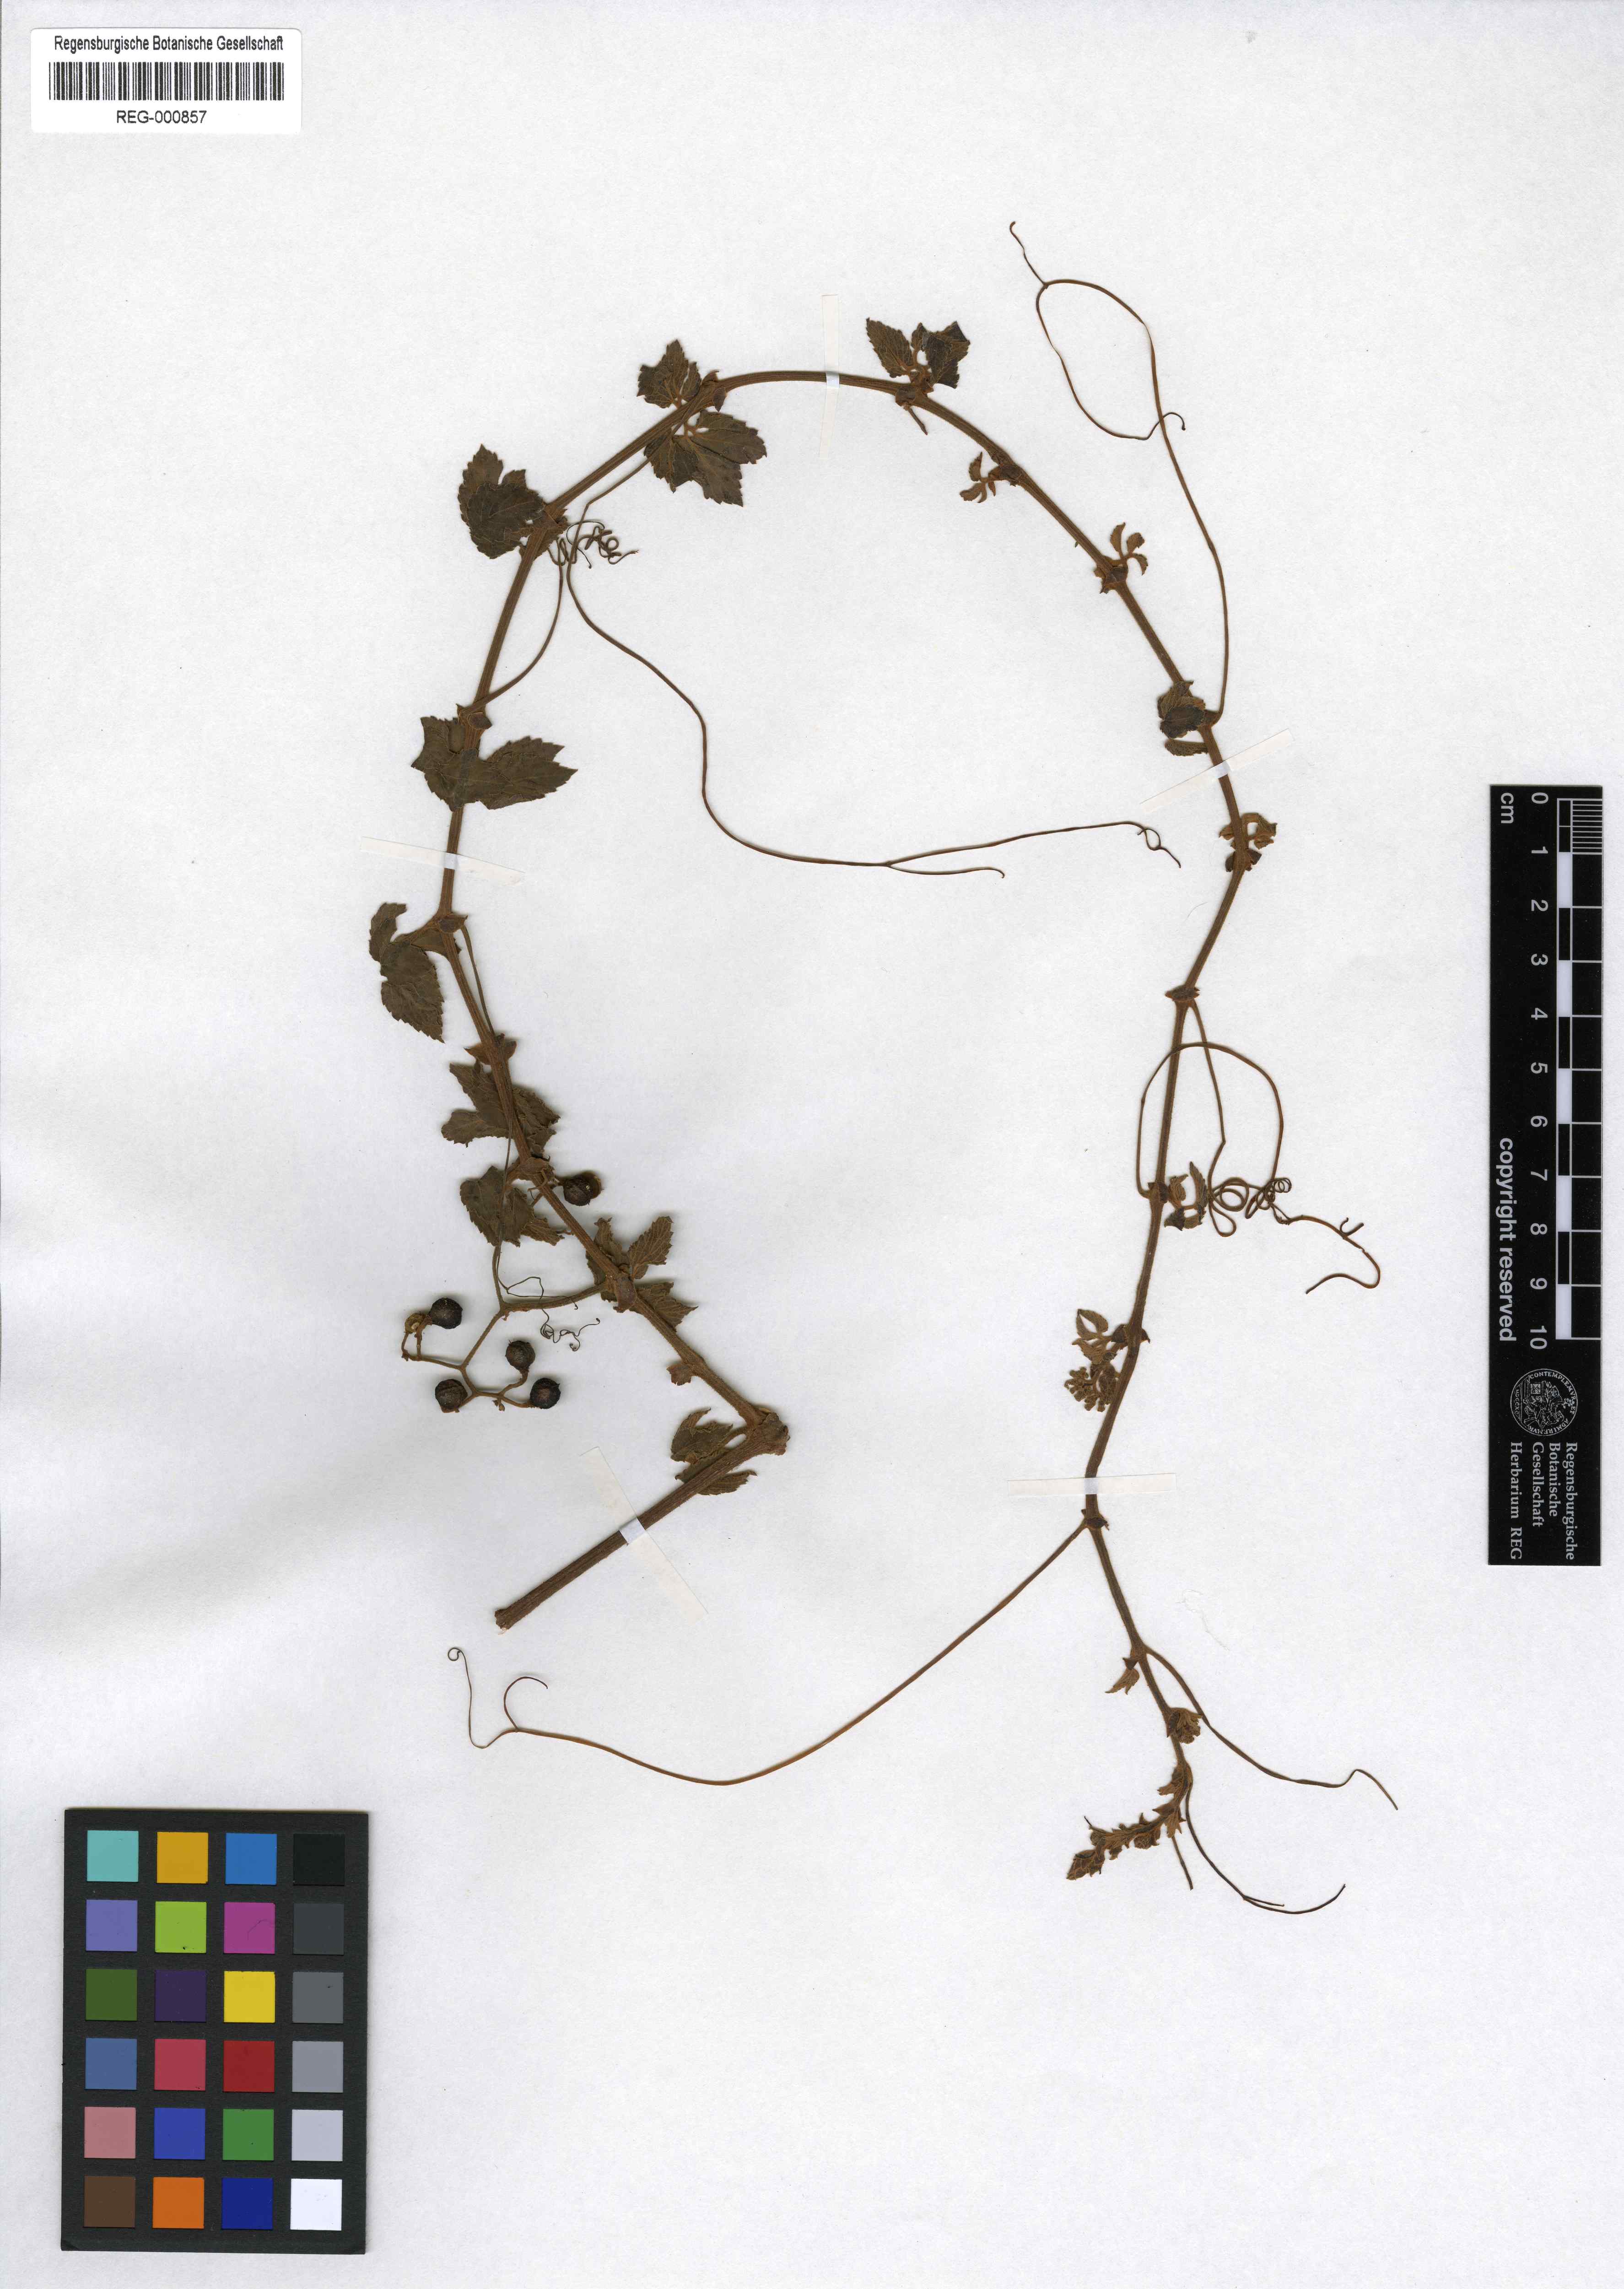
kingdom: Plantae
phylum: Tracheophyta
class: Magnoliopsida
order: Vitales
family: Vitaceae
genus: Cyphostemma
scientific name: Cyphostemma adenanthum
